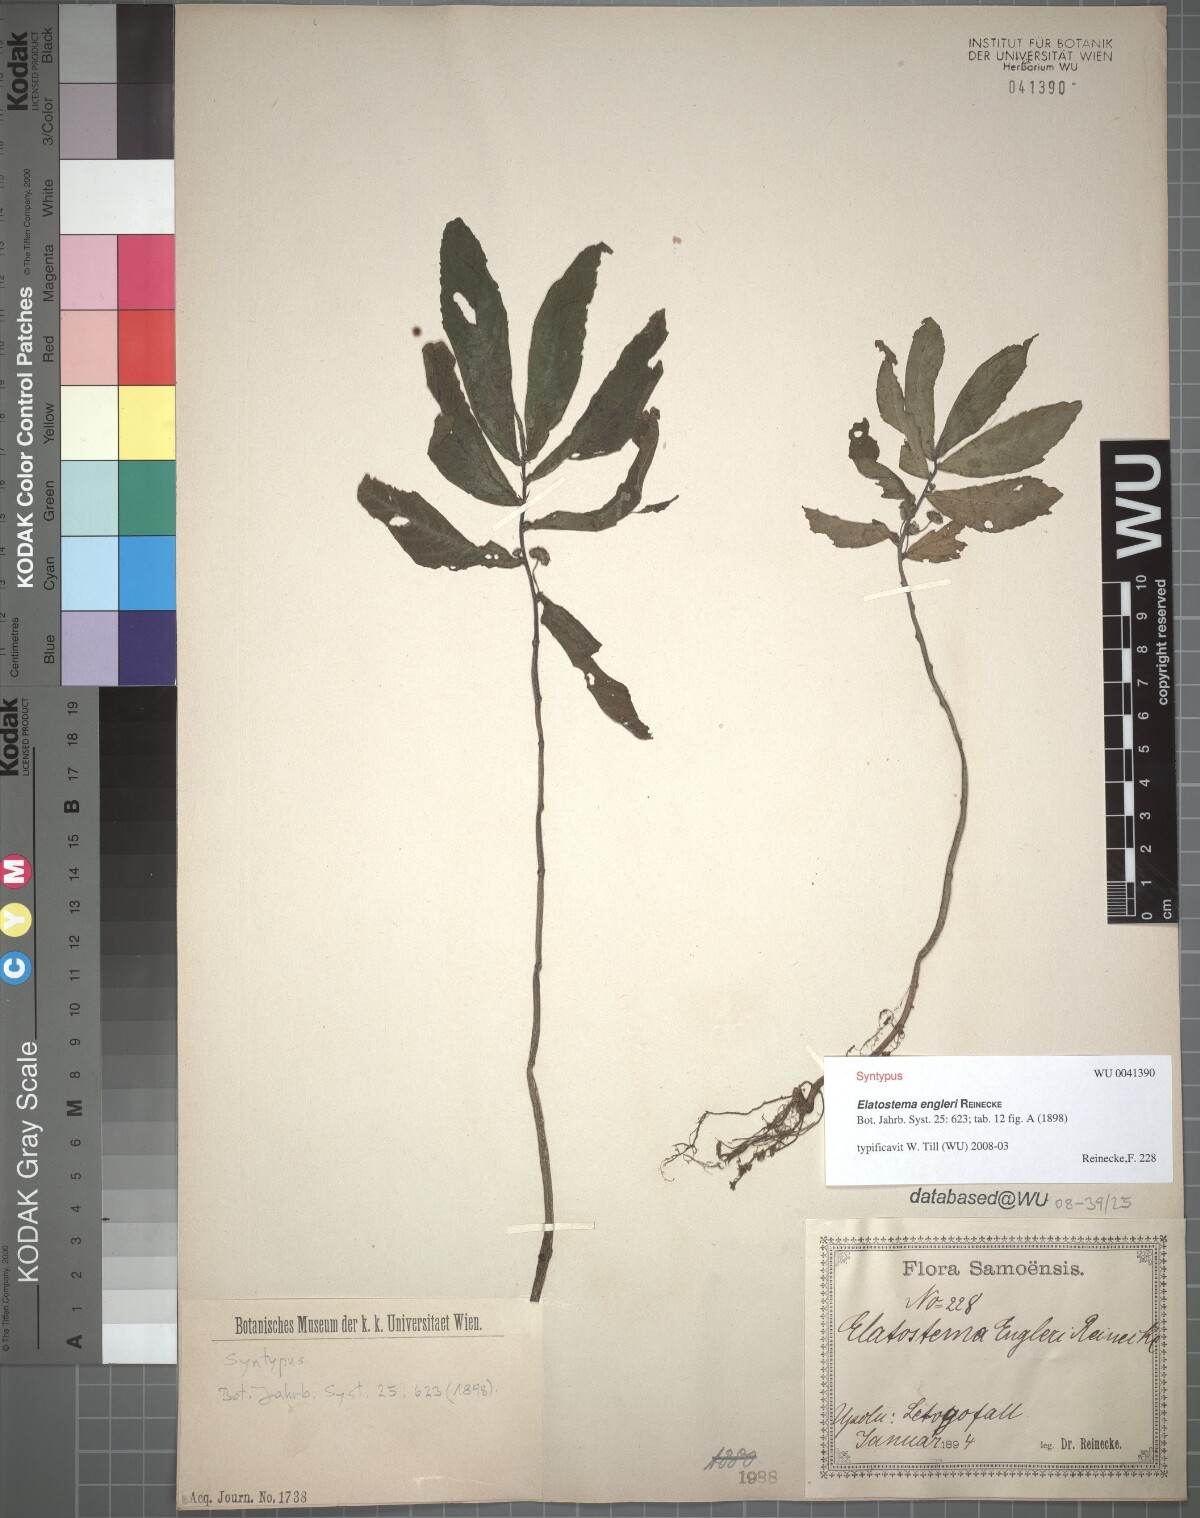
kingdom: Plantae
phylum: Tracheophyta
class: Magnoliopsida
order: Rosales
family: Urticaceae
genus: Elatostema
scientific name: Elatostema engleri
